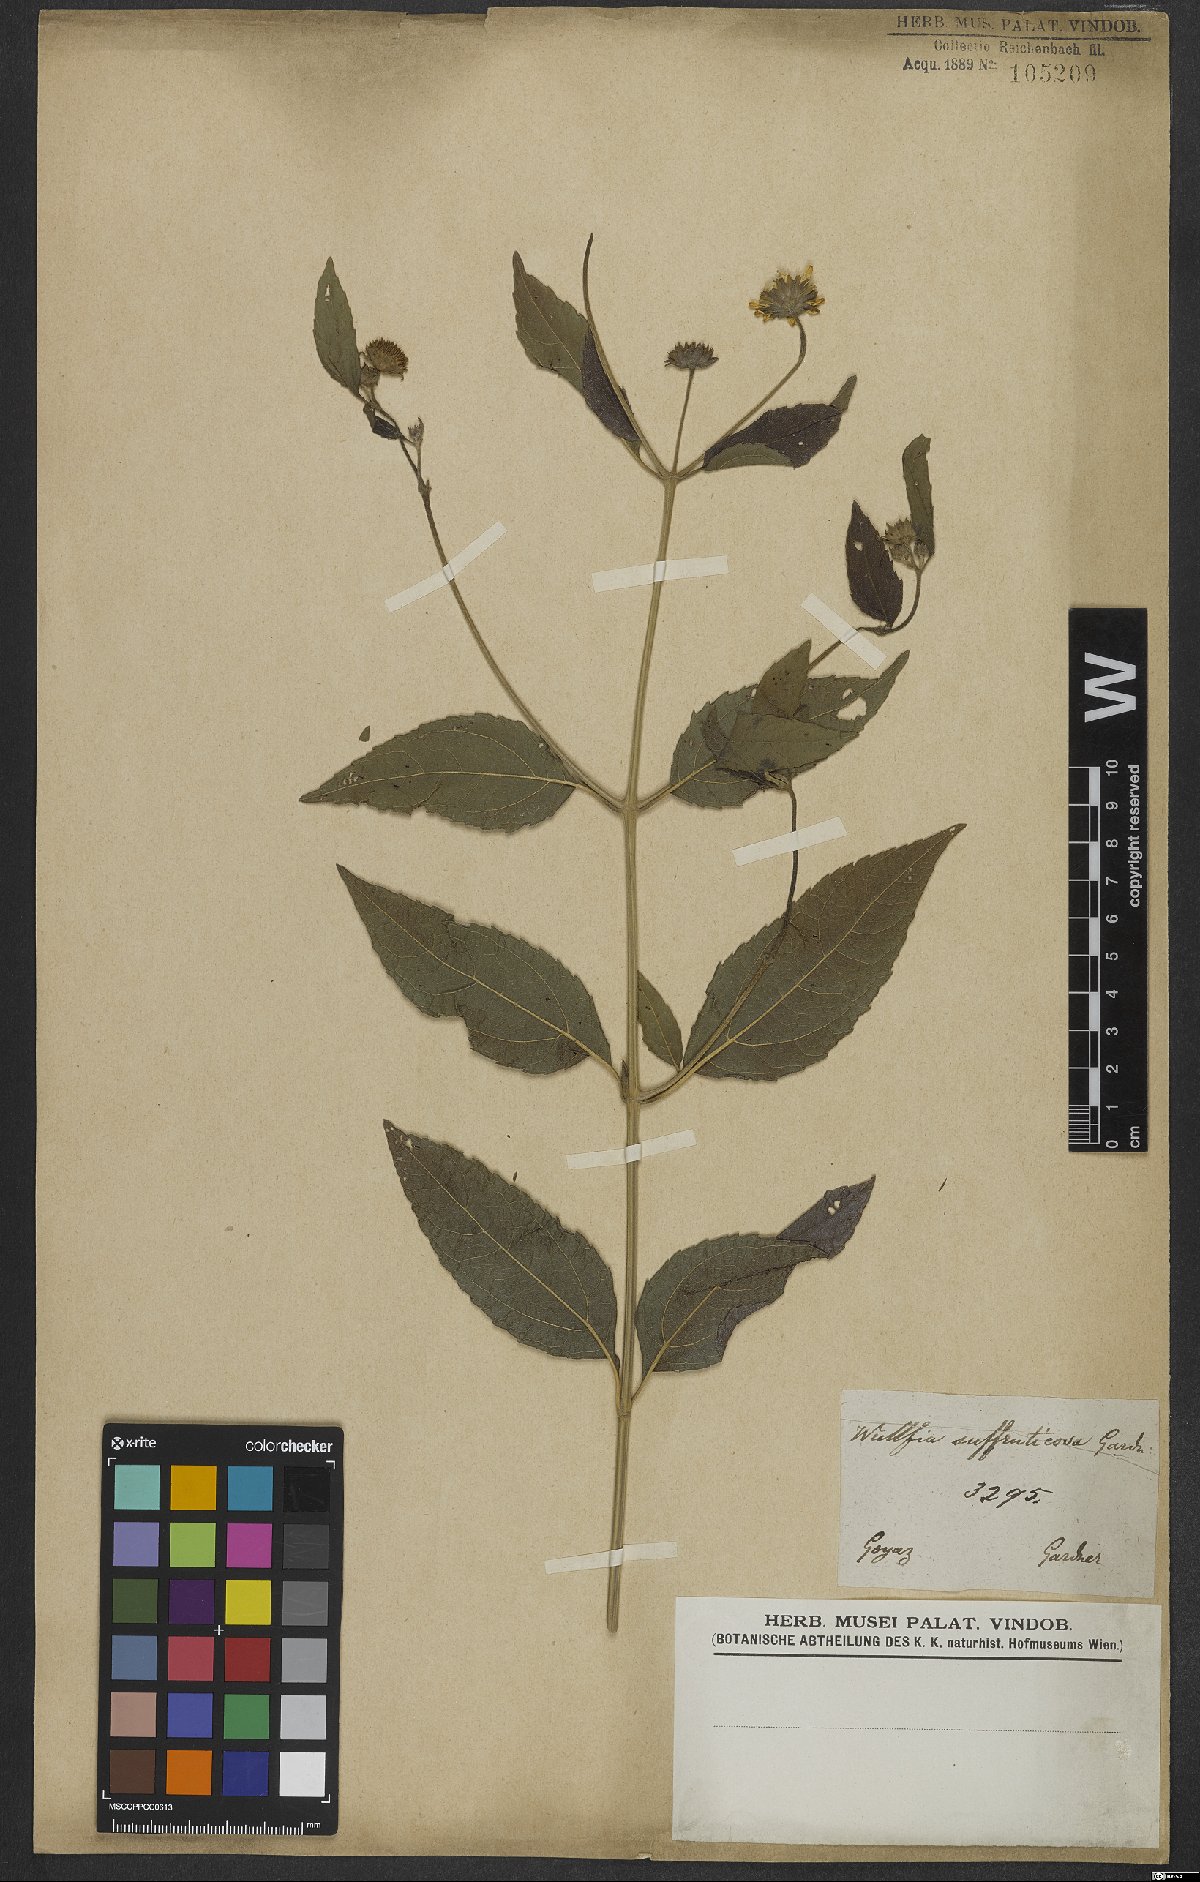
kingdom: Plantae
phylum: Tracheophyta
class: Magnoliopsida
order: Asterales
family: Asteraceae
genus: Tilesia
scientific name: Tilesia baccata
